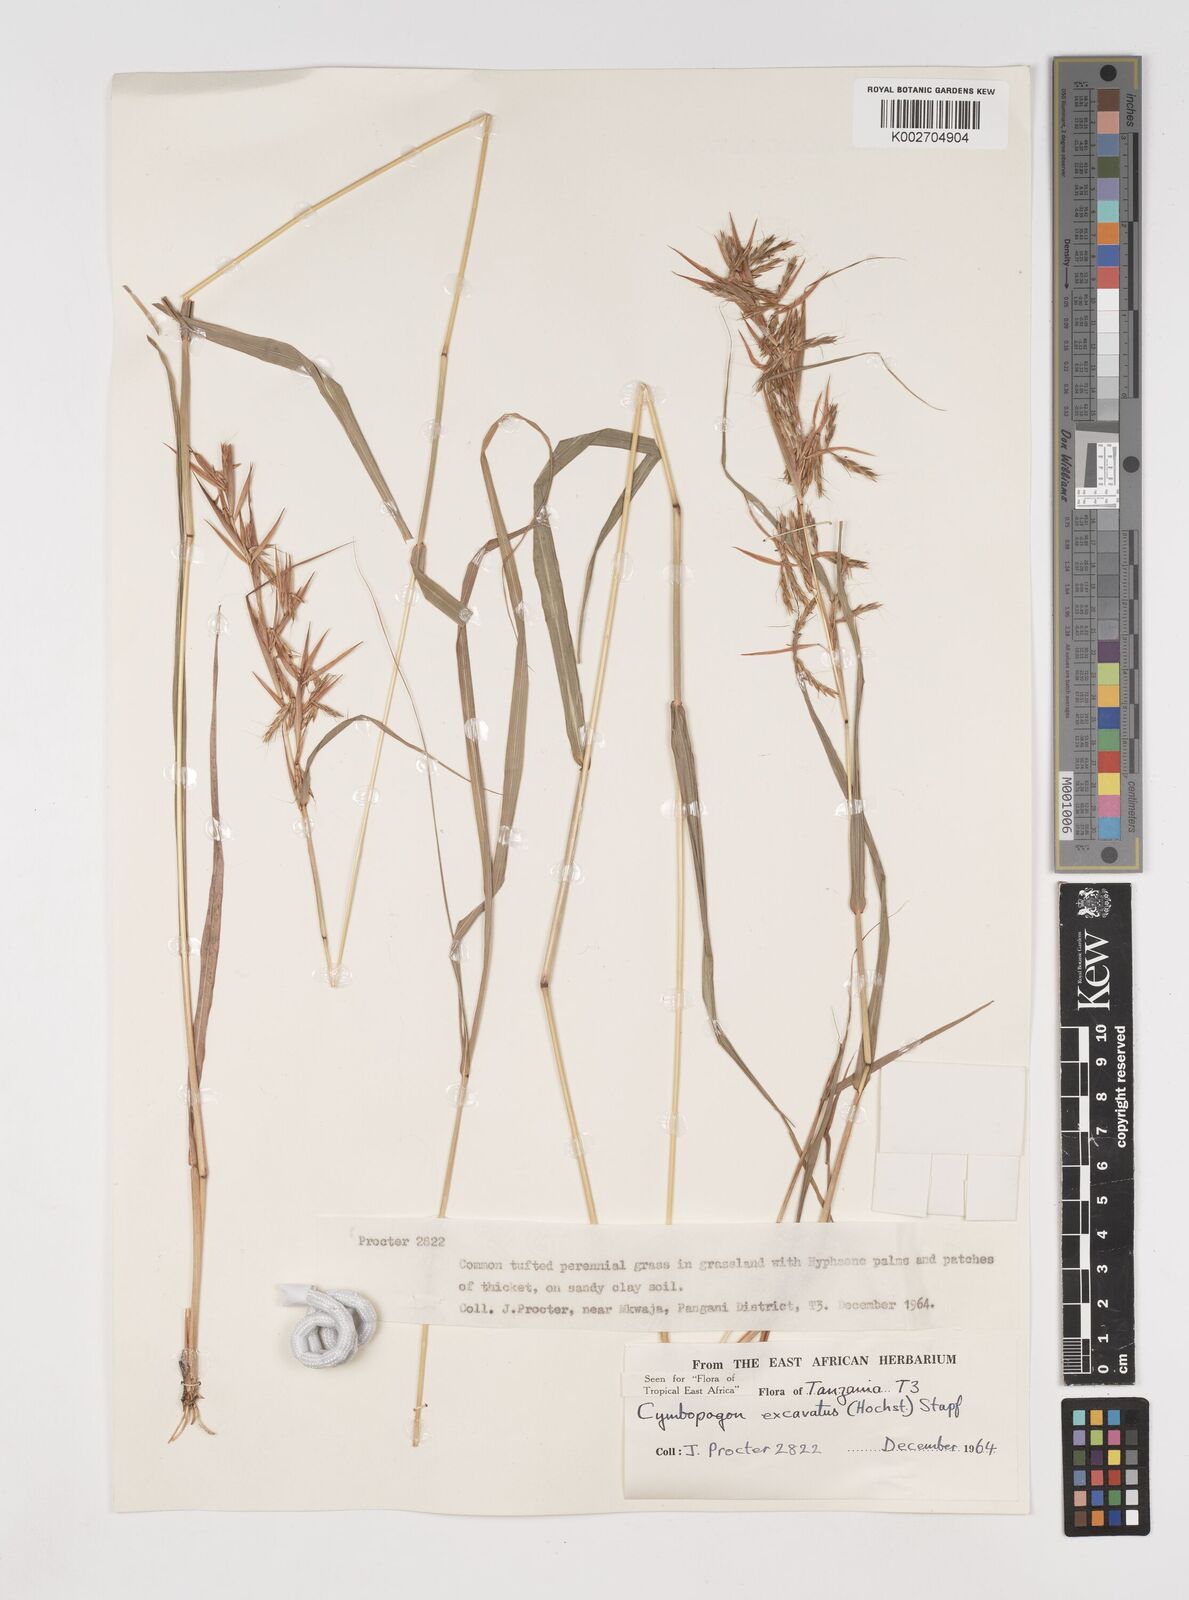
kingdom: Plantae
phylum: Tracheophyta
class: Liliopsida
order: Poales
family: Poaceae
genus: Cymbopogon
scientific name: Cymbopogon caesius
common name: Kachi grass
